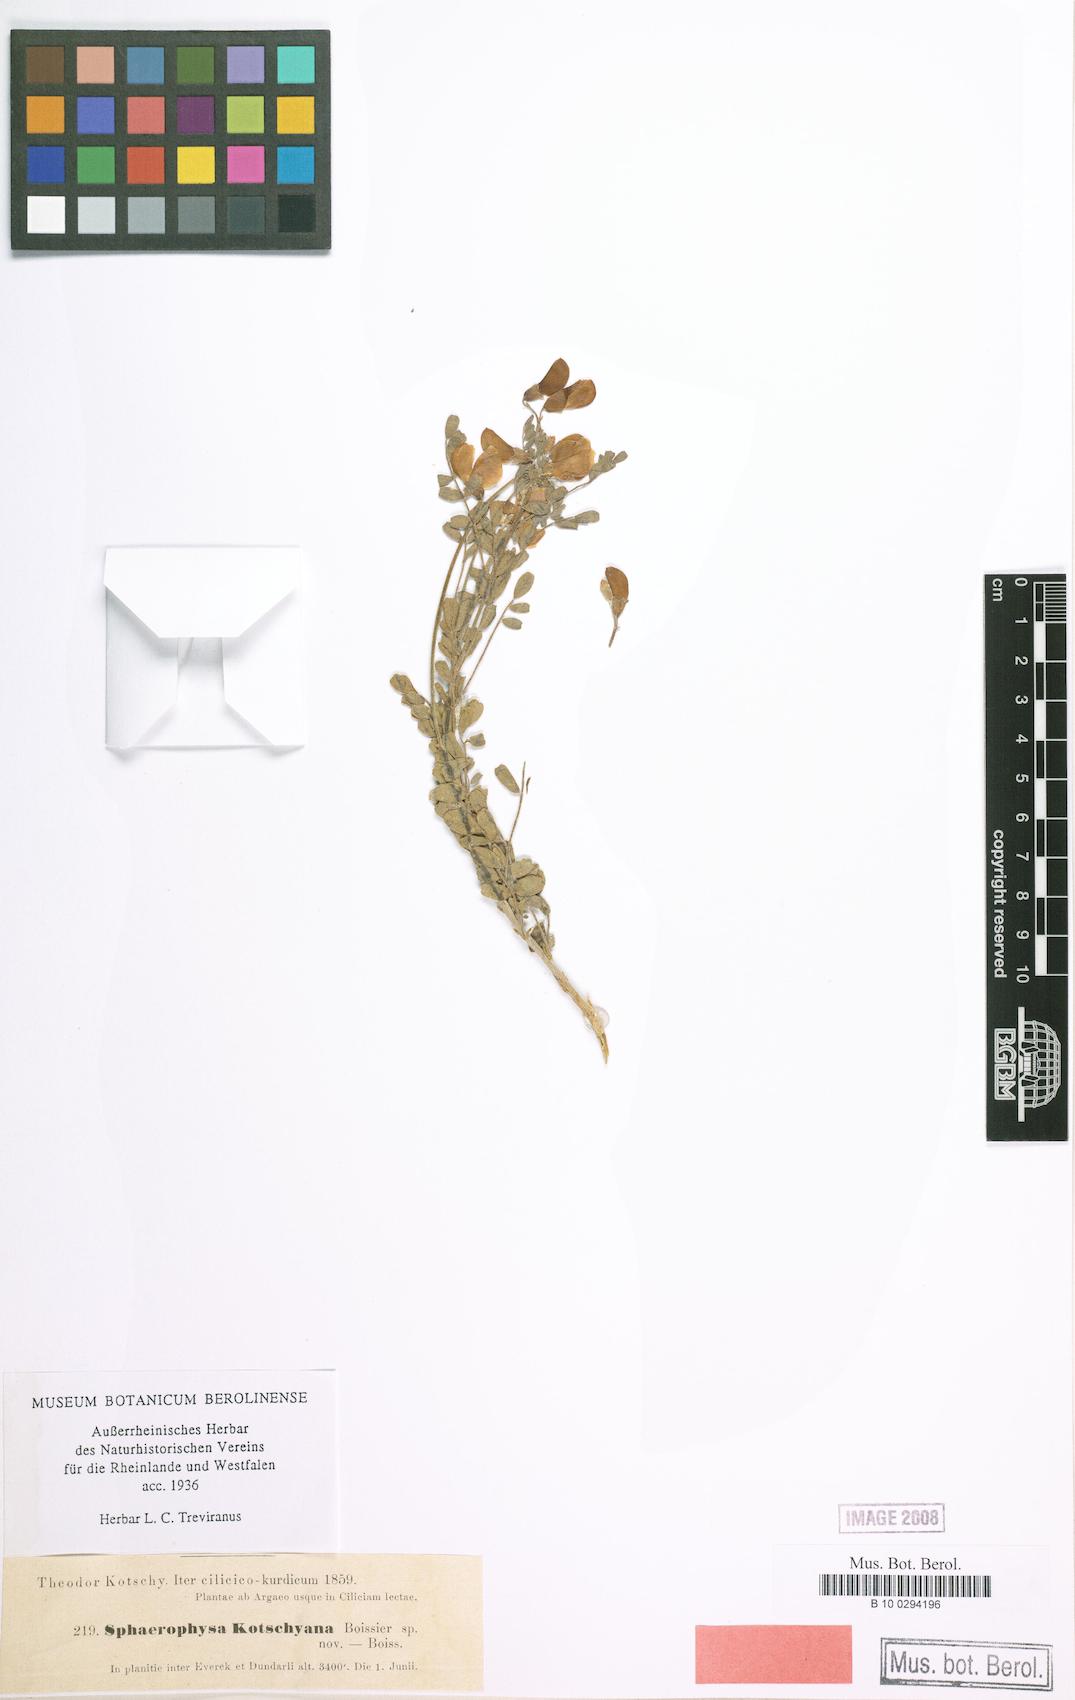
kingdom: Plantae
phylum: Tracheophyta
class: Magnoliopsida
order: Fabales
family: Fabaceae
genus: Sphaerophysa
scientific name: Sphaerophysa kotschyana
